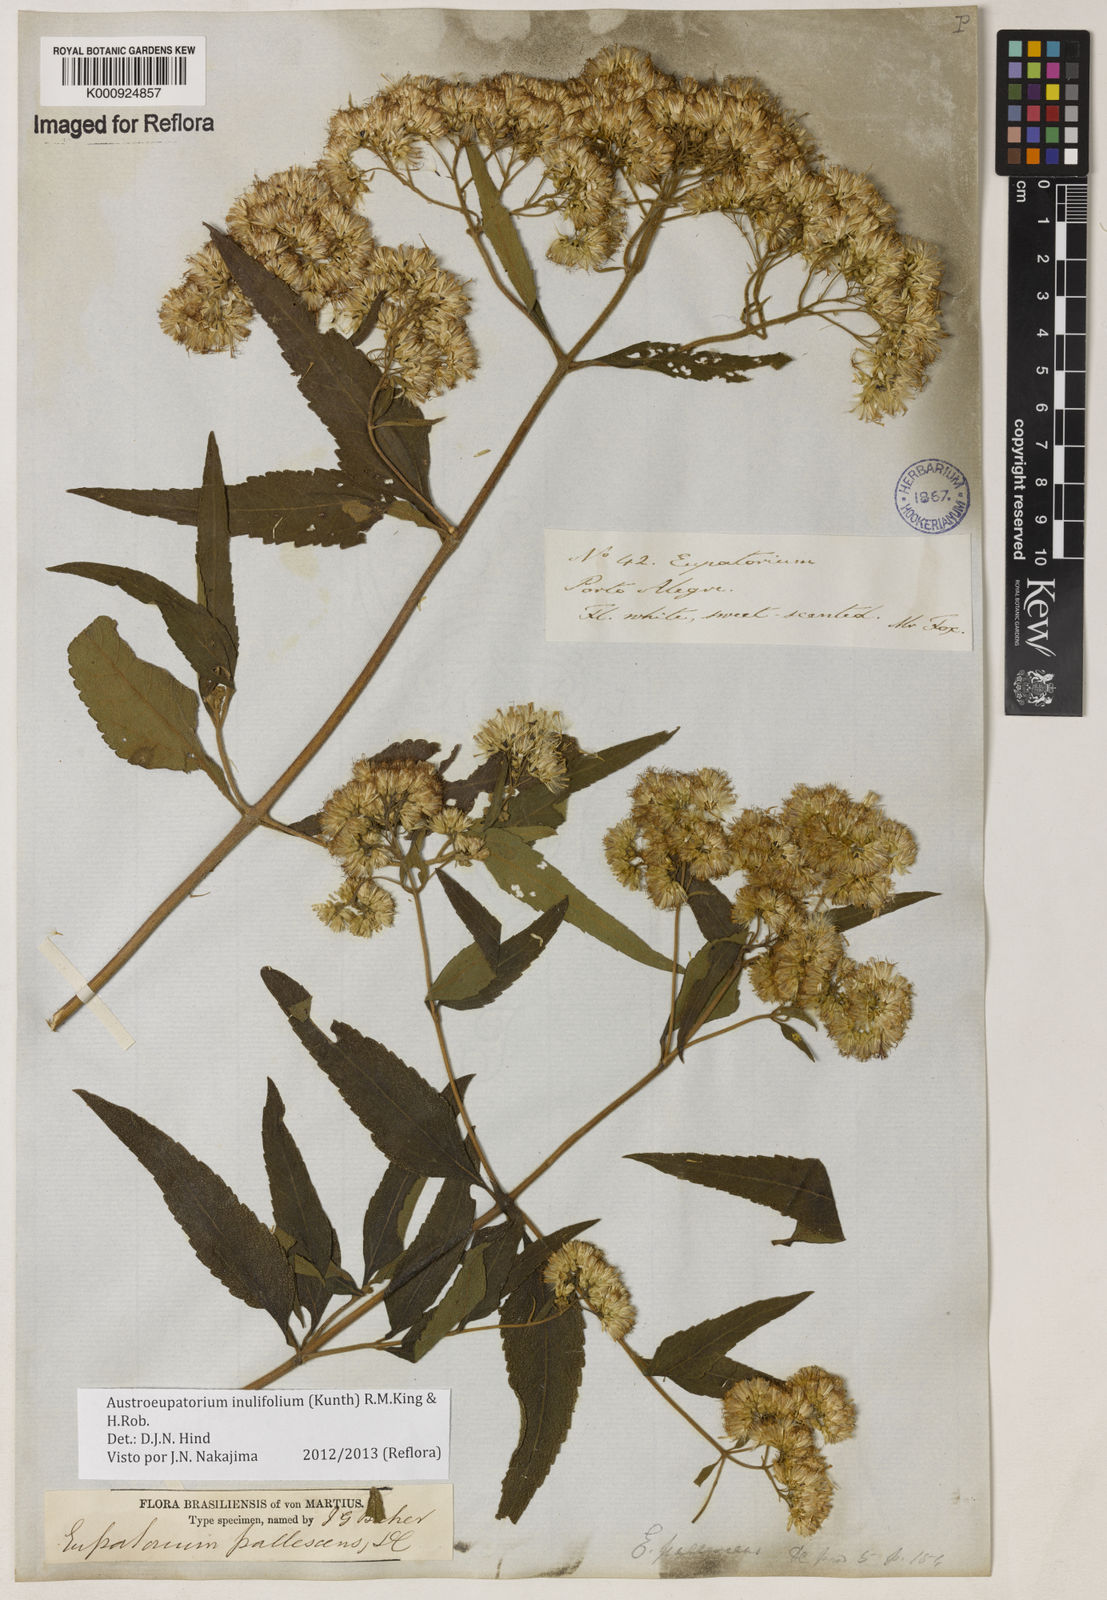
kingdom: Plantae
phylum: Tracheophyta
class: Magnoliopsida
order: Asterales
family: Asteraceae
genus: Austroeupatorium
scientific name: Austroeupatorium inulifolium
